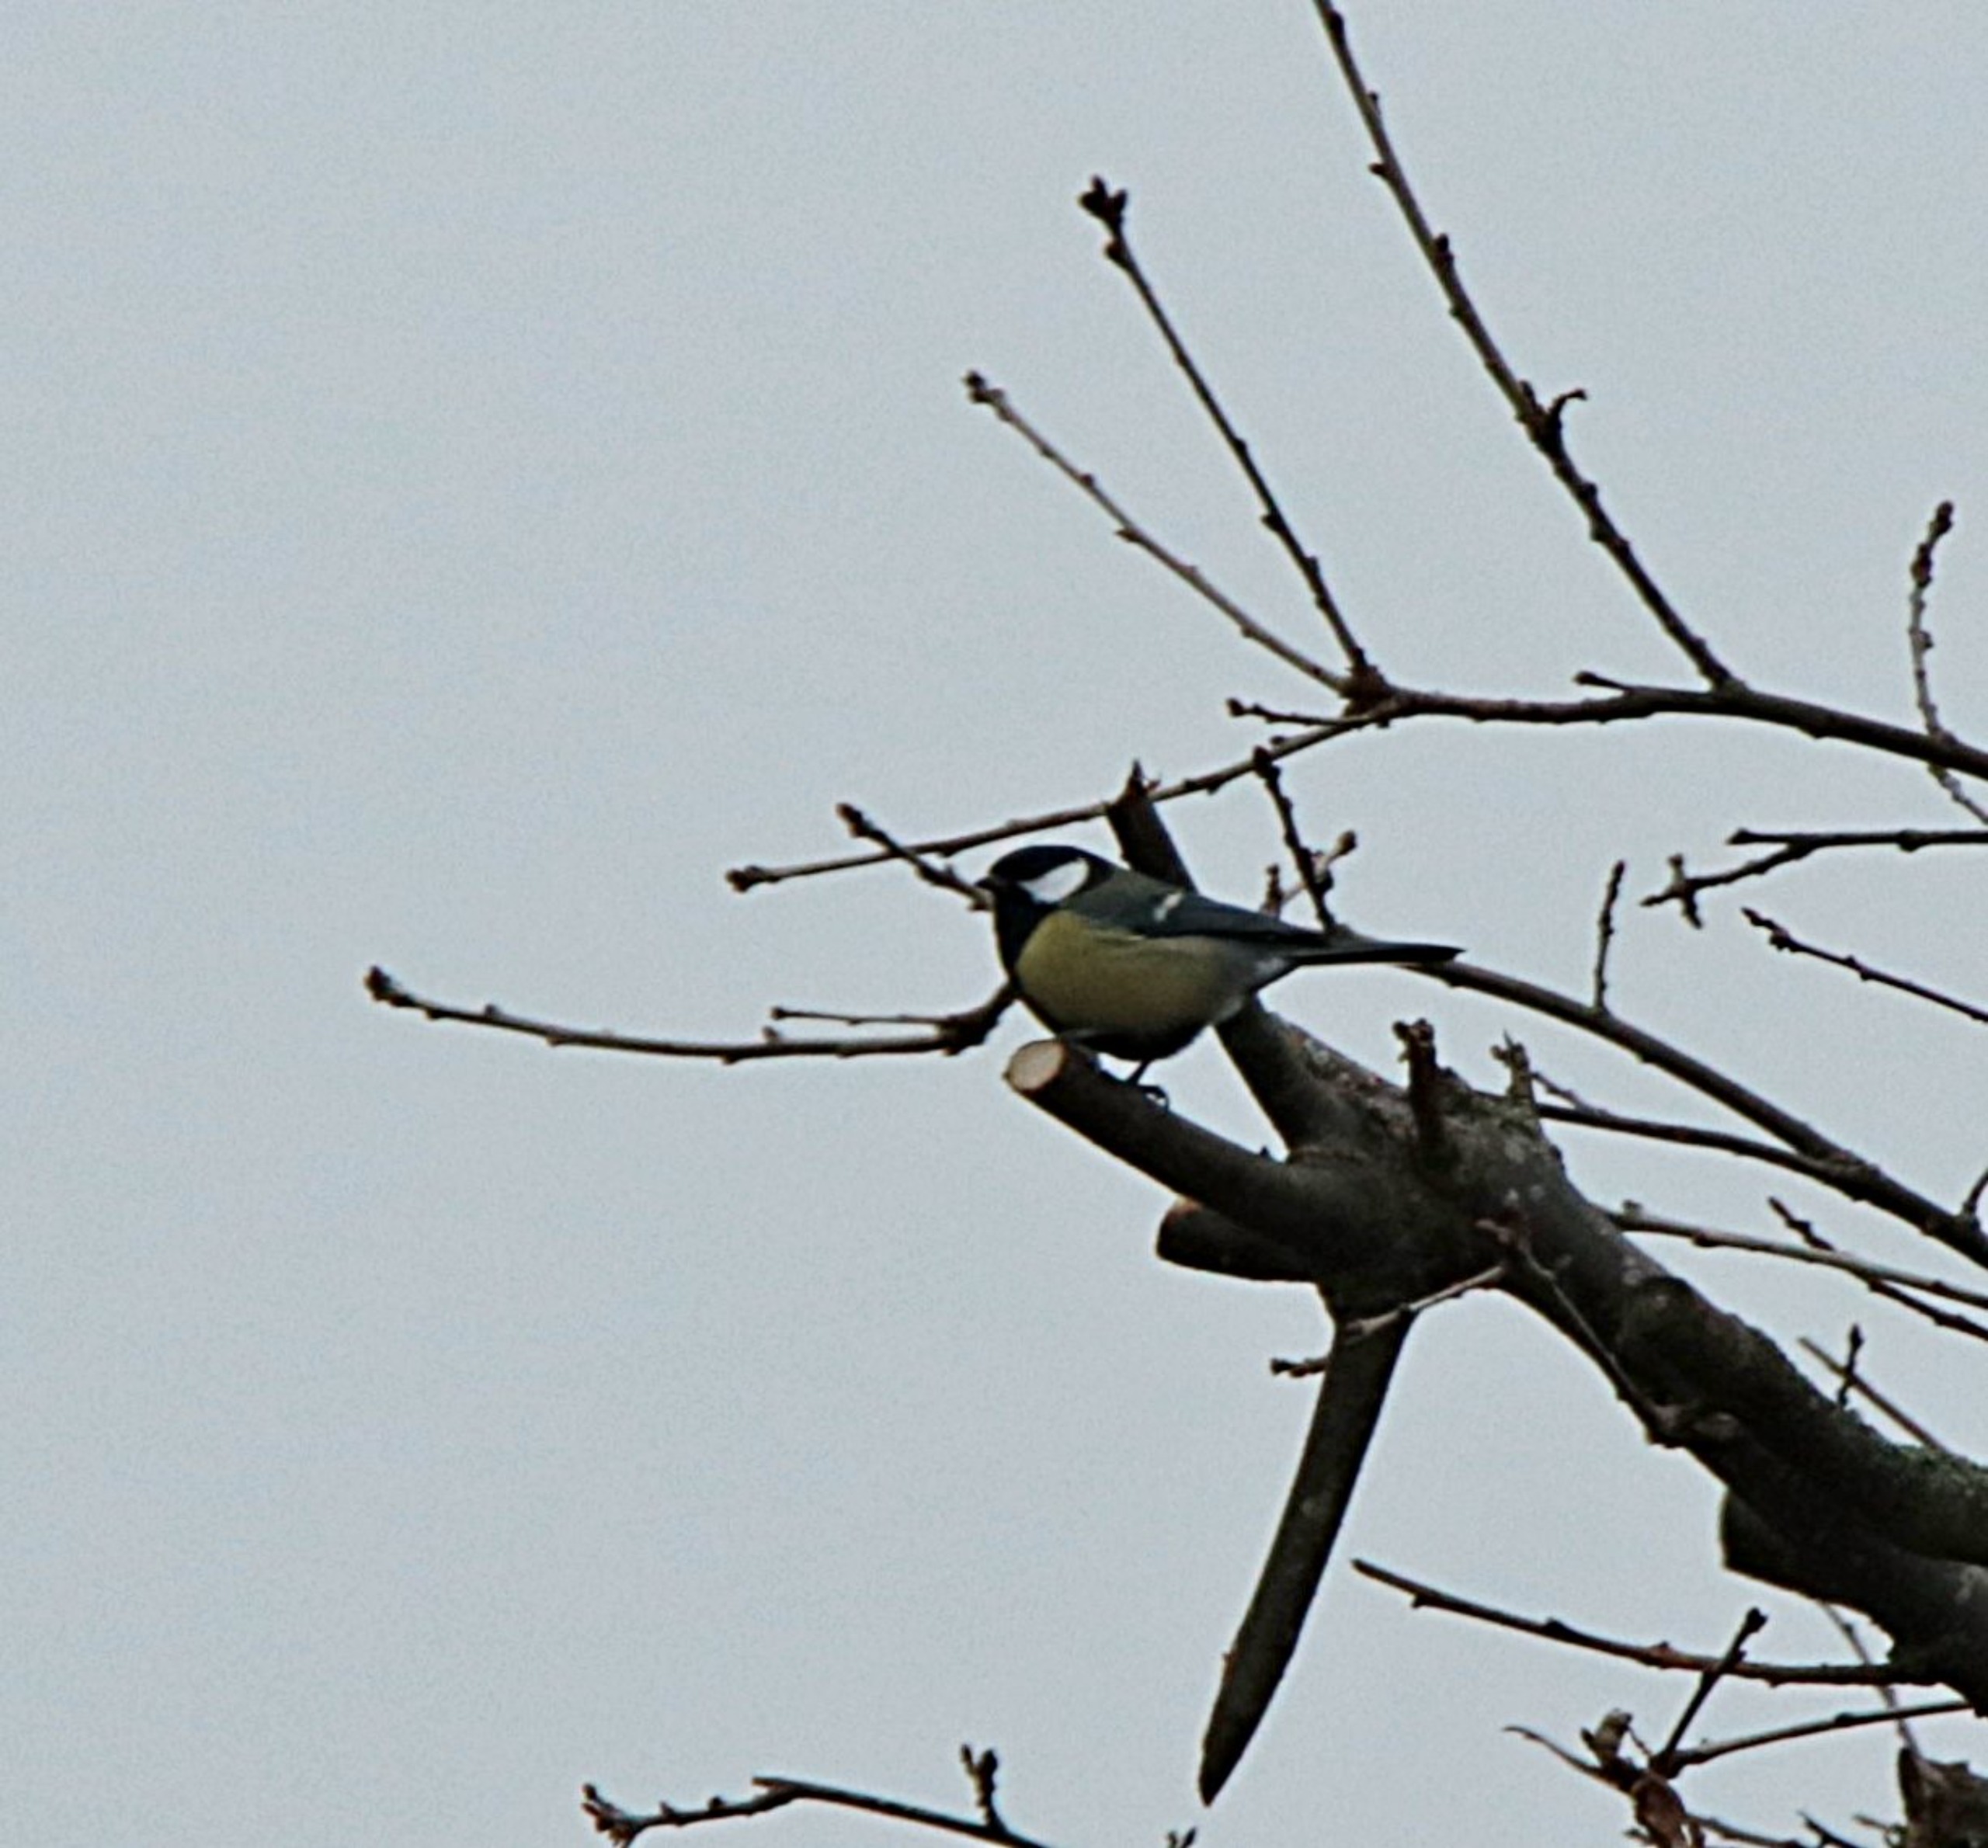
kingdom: Animalia
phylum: Chordata
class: Aves
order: Passeriformes
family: Paridae
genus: Parus
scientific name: Parus major
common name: Musvit
